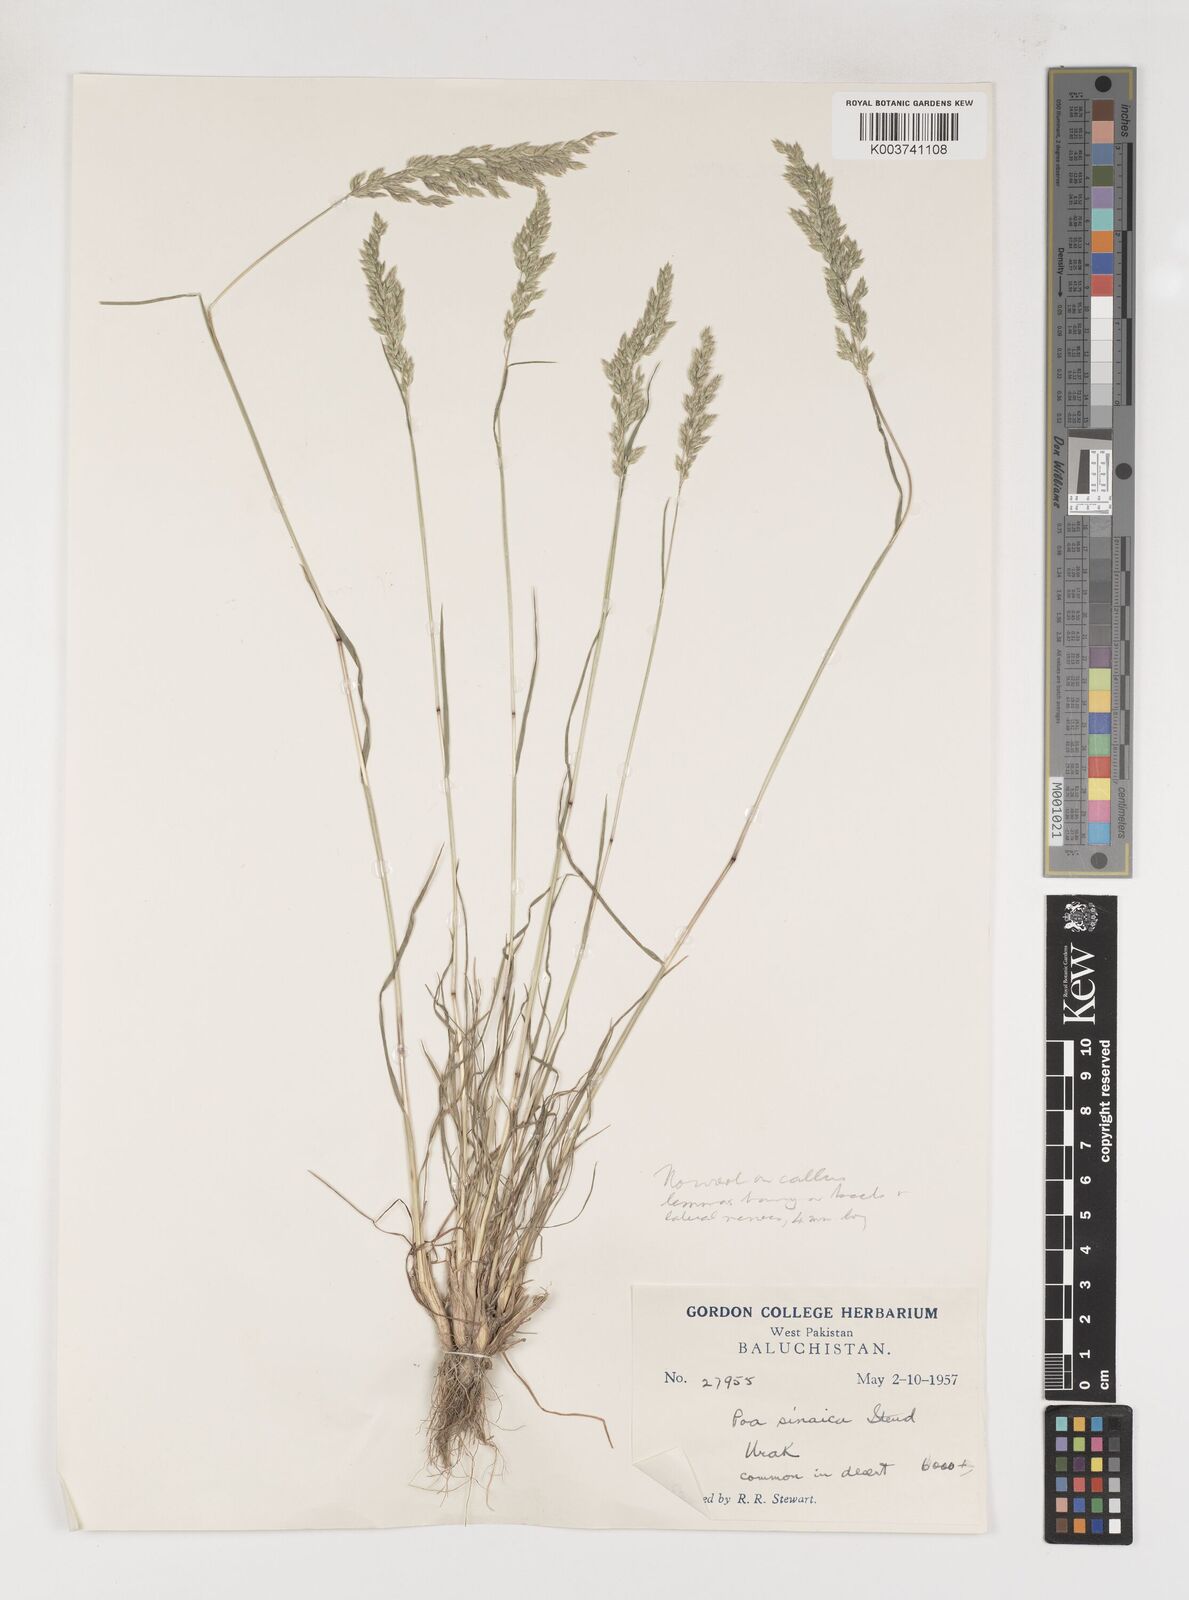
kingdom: Plantae
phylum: Tracheophyta
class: Liliopsida
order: Poales
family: Poaceae
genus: Poa
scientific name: Poa sinaica
